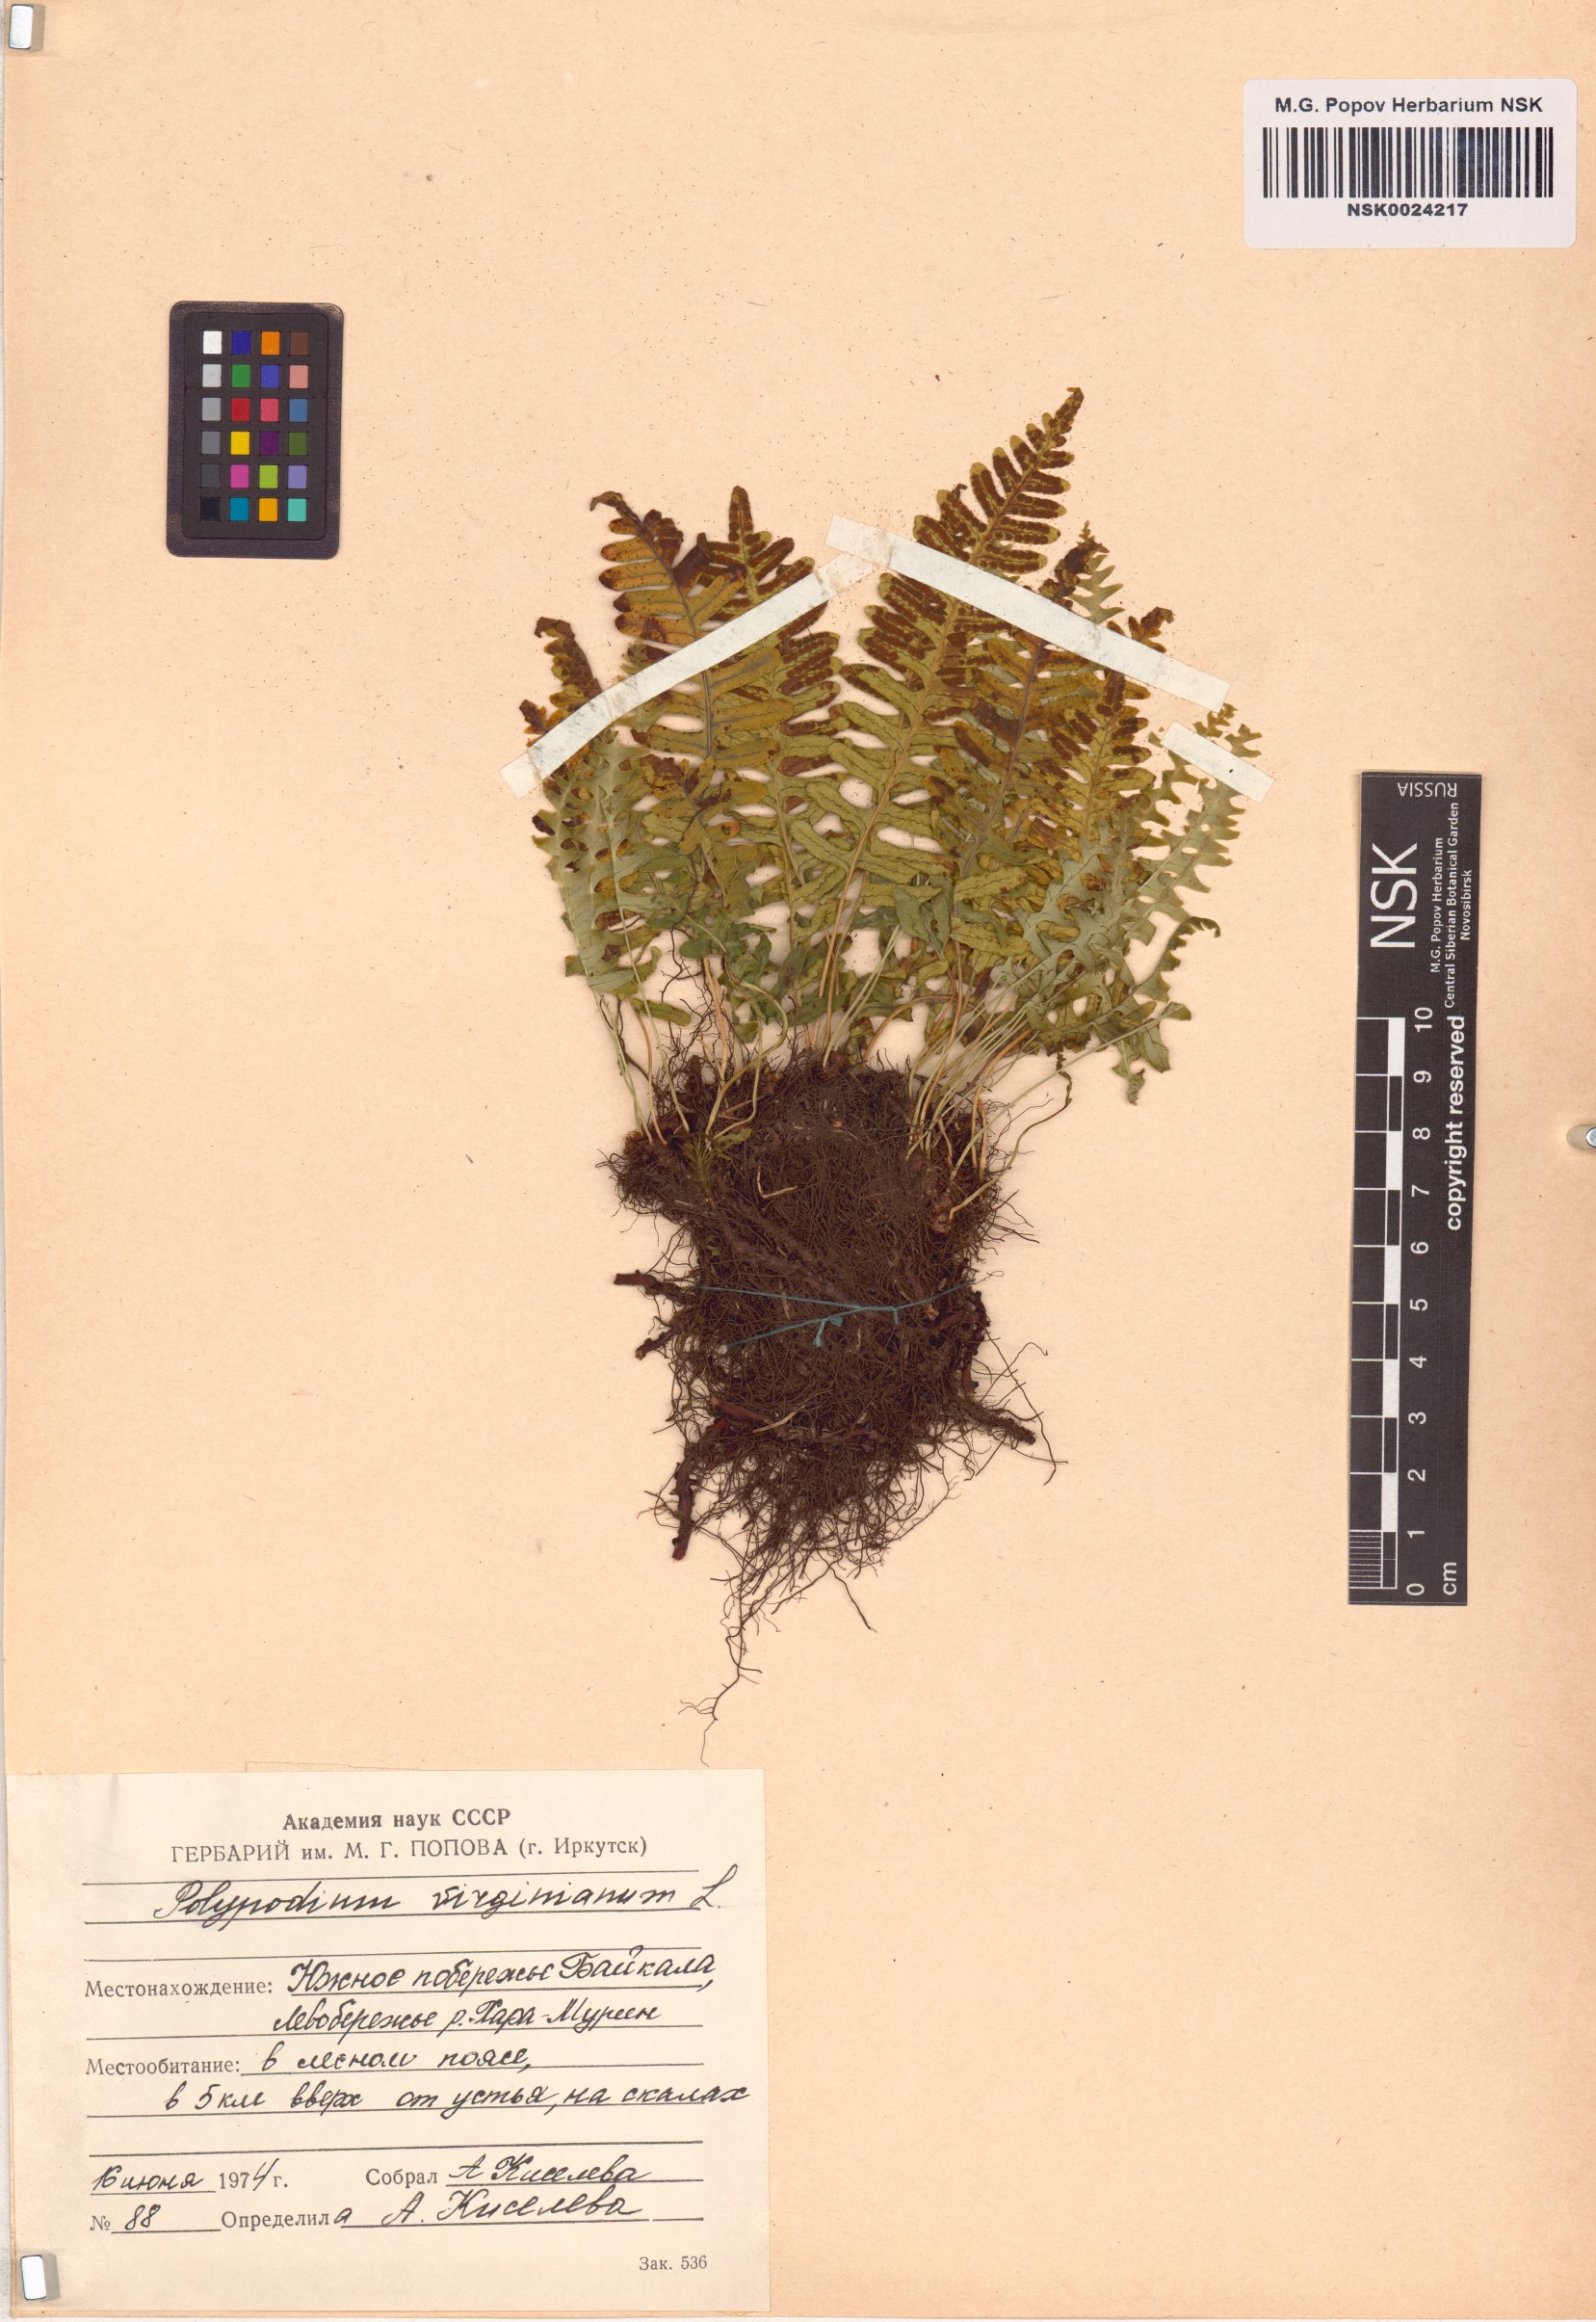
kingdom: Plantae
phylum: Tracheophyta
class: Polypodiopsida
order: Polypodiales
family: Polypodiaceae
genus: Polypodium
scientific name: Polypodium virginianum
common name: American wall fern
